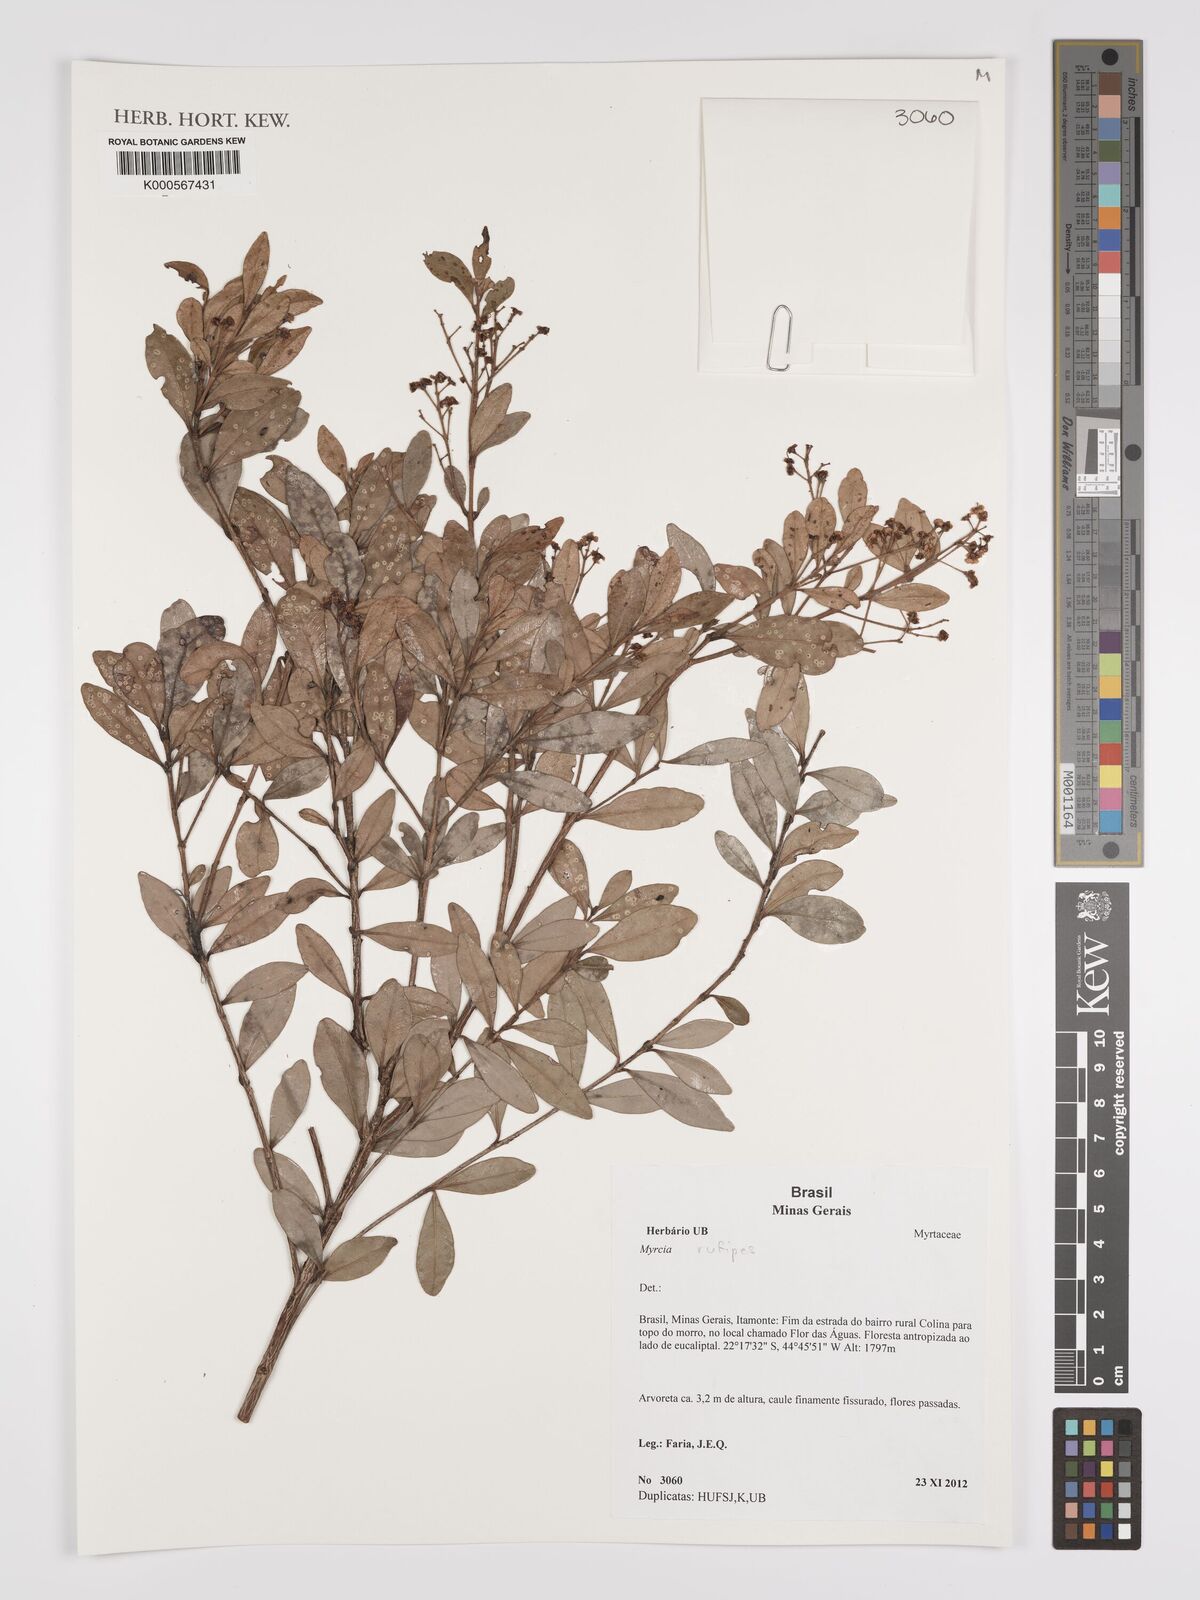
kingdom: Plantae
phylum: Tracheophyta
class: Magnoliopsida
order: Myrtales
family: Myrtaceae
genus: Myrcia
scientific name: Myrcia rufipes
